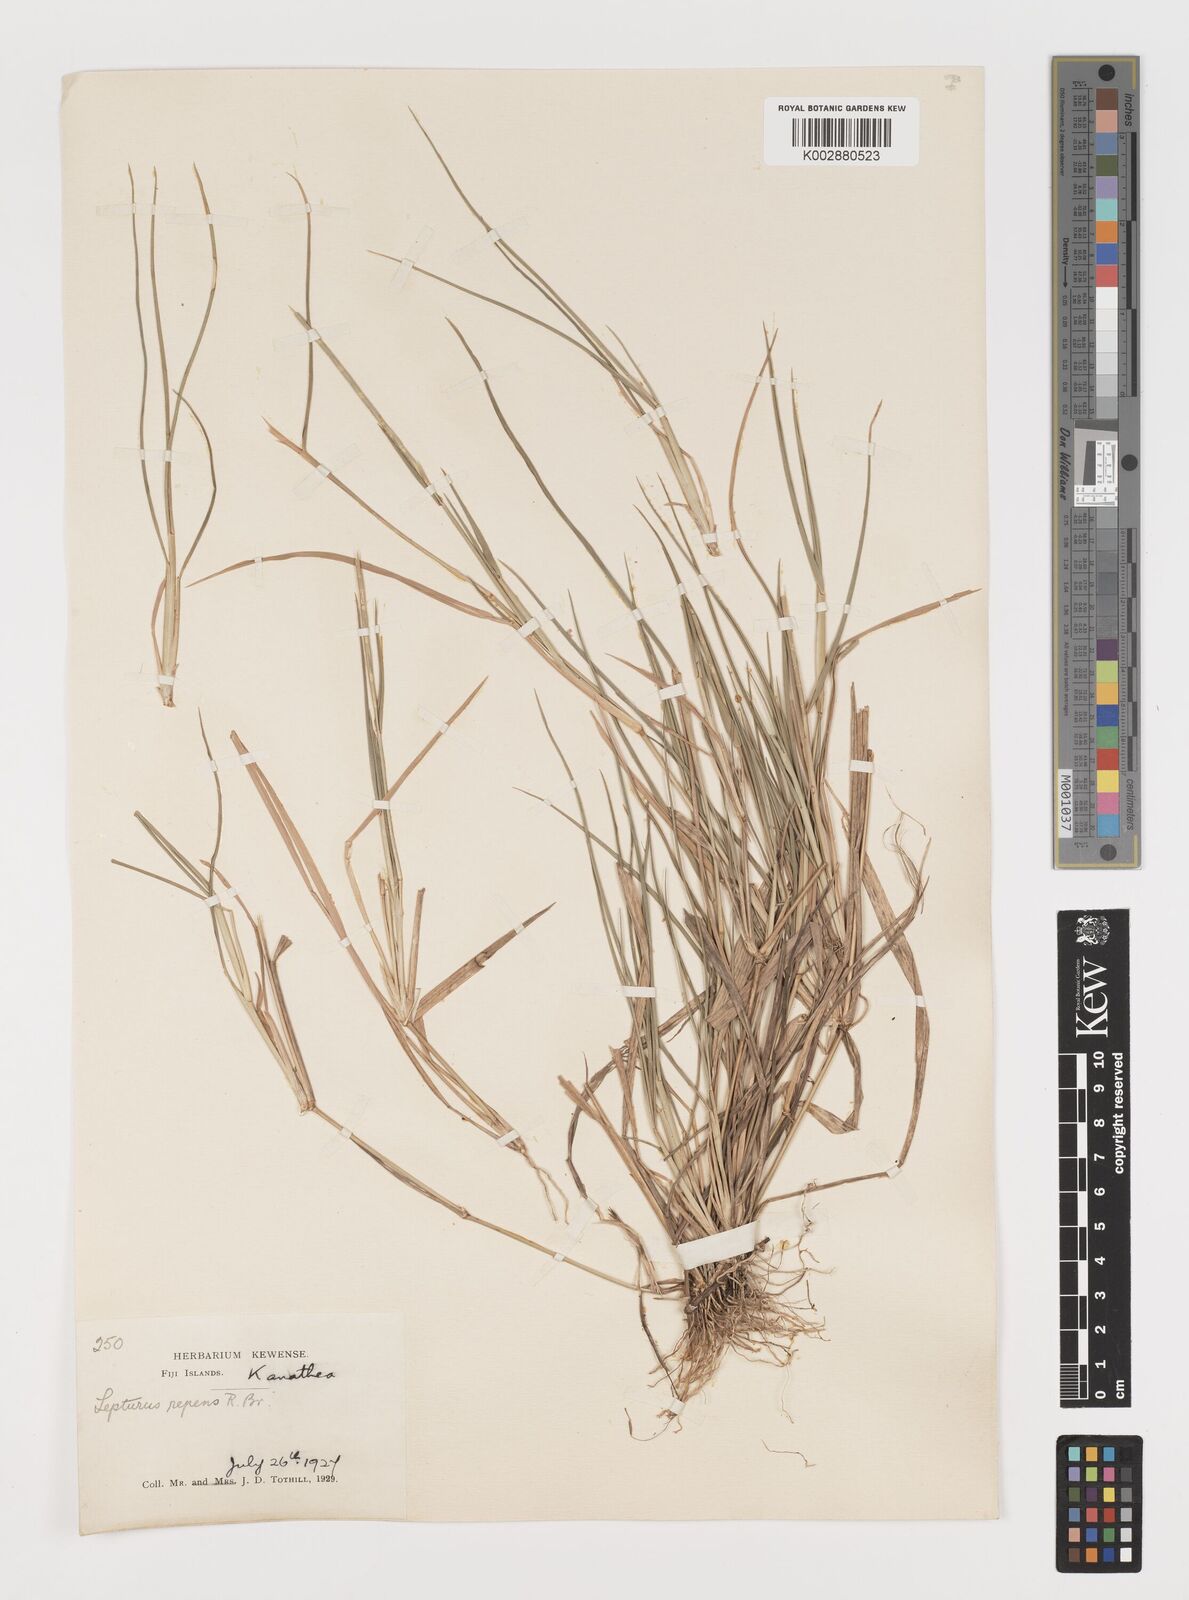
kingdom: Plantae
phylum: Tracheophyta
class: Liliopsida
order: Poales
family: Poaceae
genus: Lepturus
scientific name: Lepturus repens
